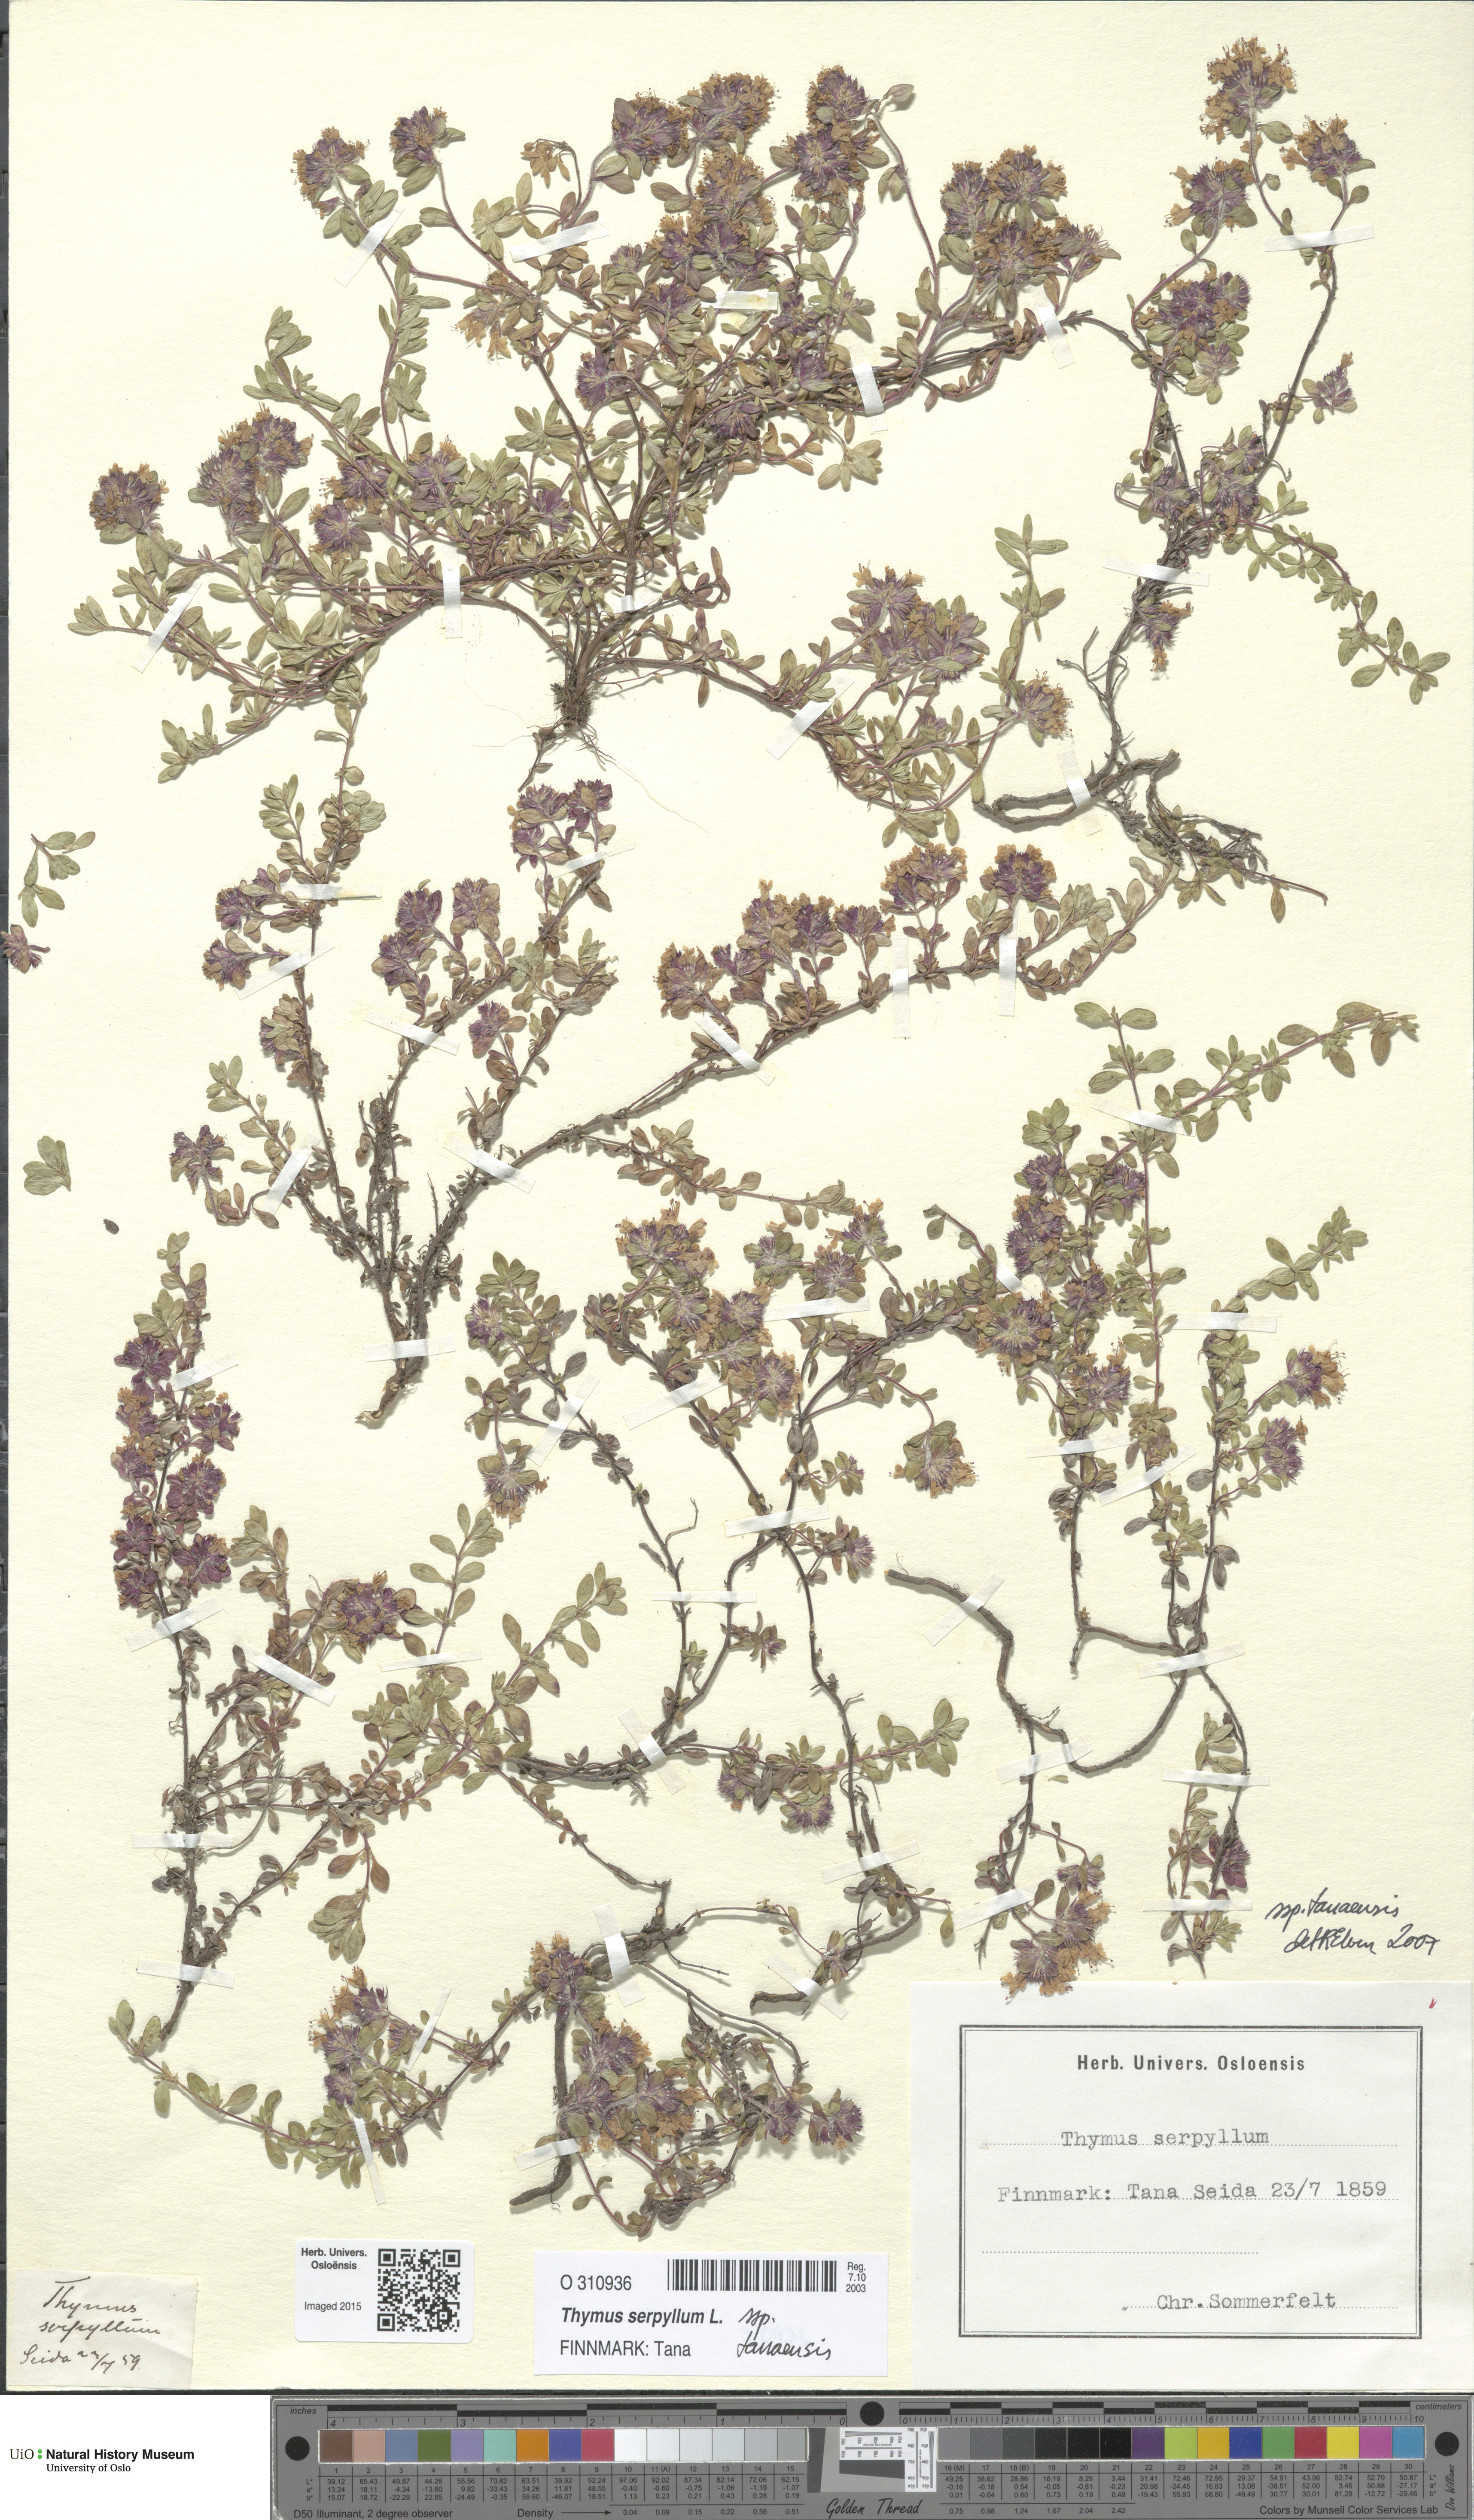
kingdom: Plantae
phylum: Tracheophyta
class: Magnoliopsida
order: Lamiales
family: Lamiaceae
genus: Thymus
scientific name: Thymus serpyllum
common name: Breckland thyme
